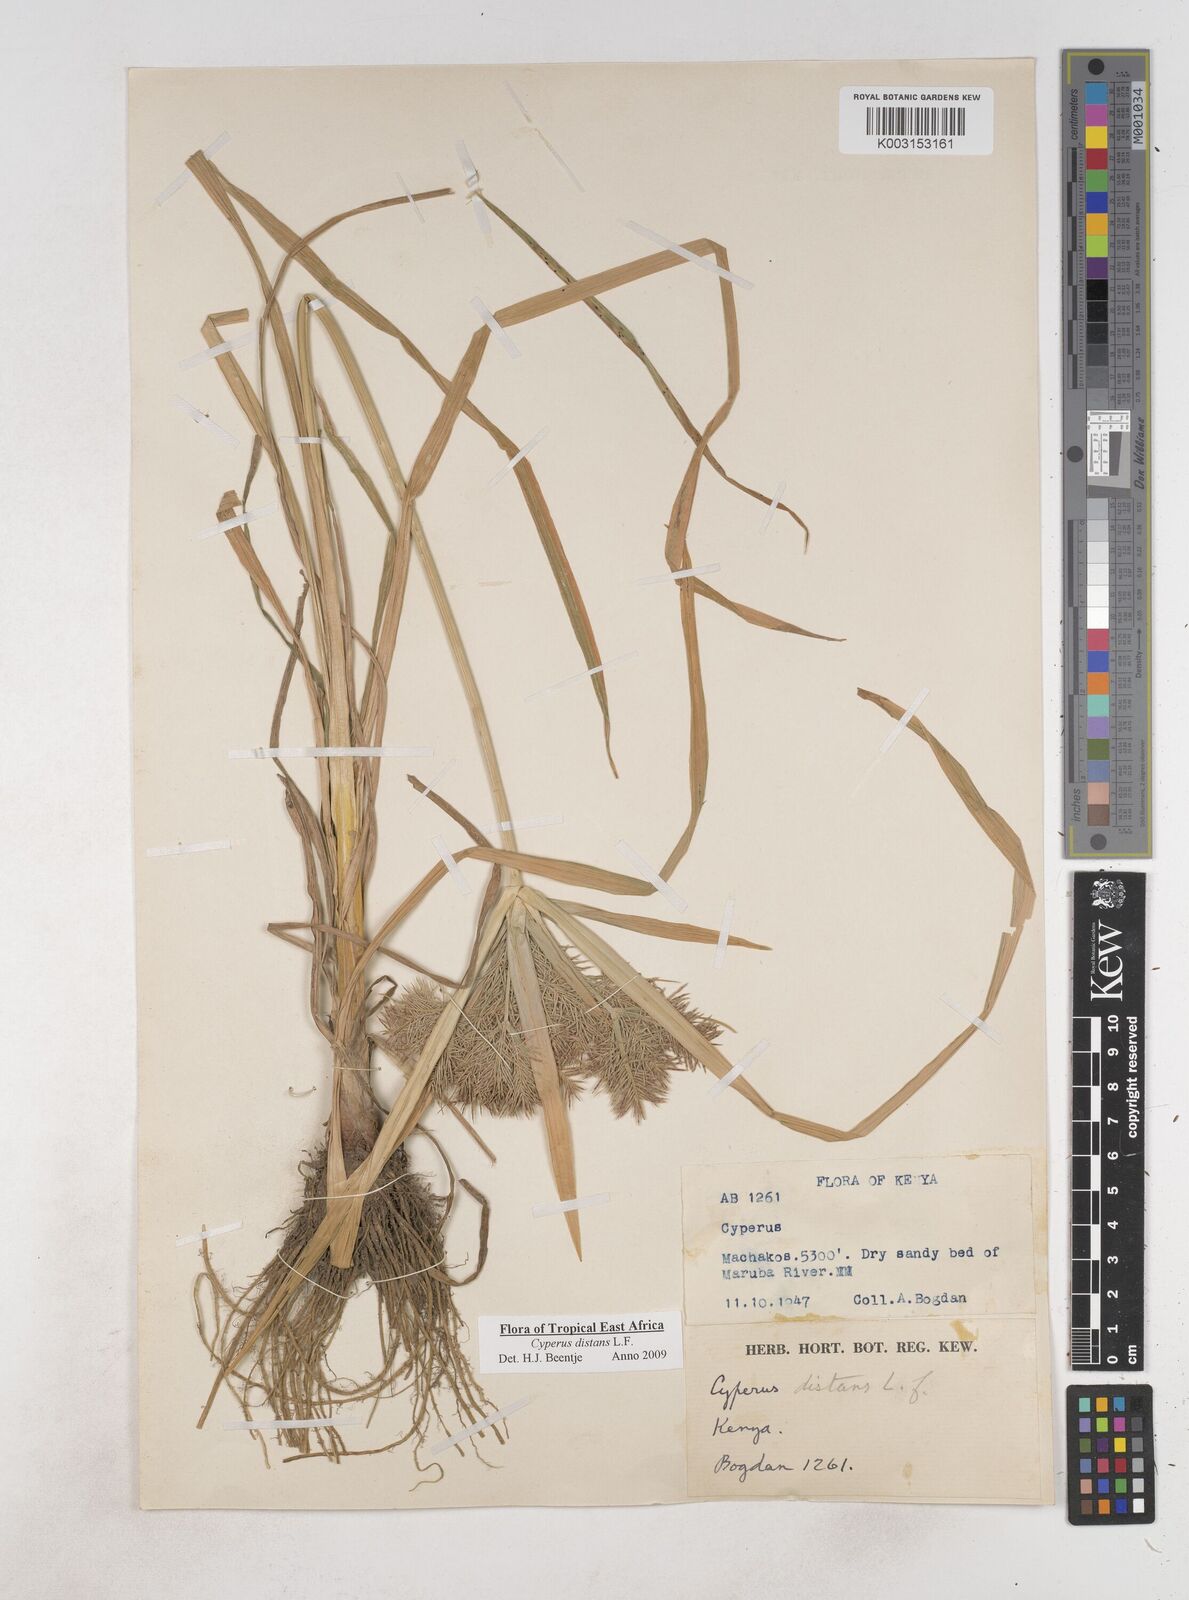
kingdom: Plantae
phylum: Tracheophyta
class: Liliopsida
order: Poales
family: Cyperaceae
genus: Cyperus
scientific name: Cyperus distans
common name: Slender cyperus
